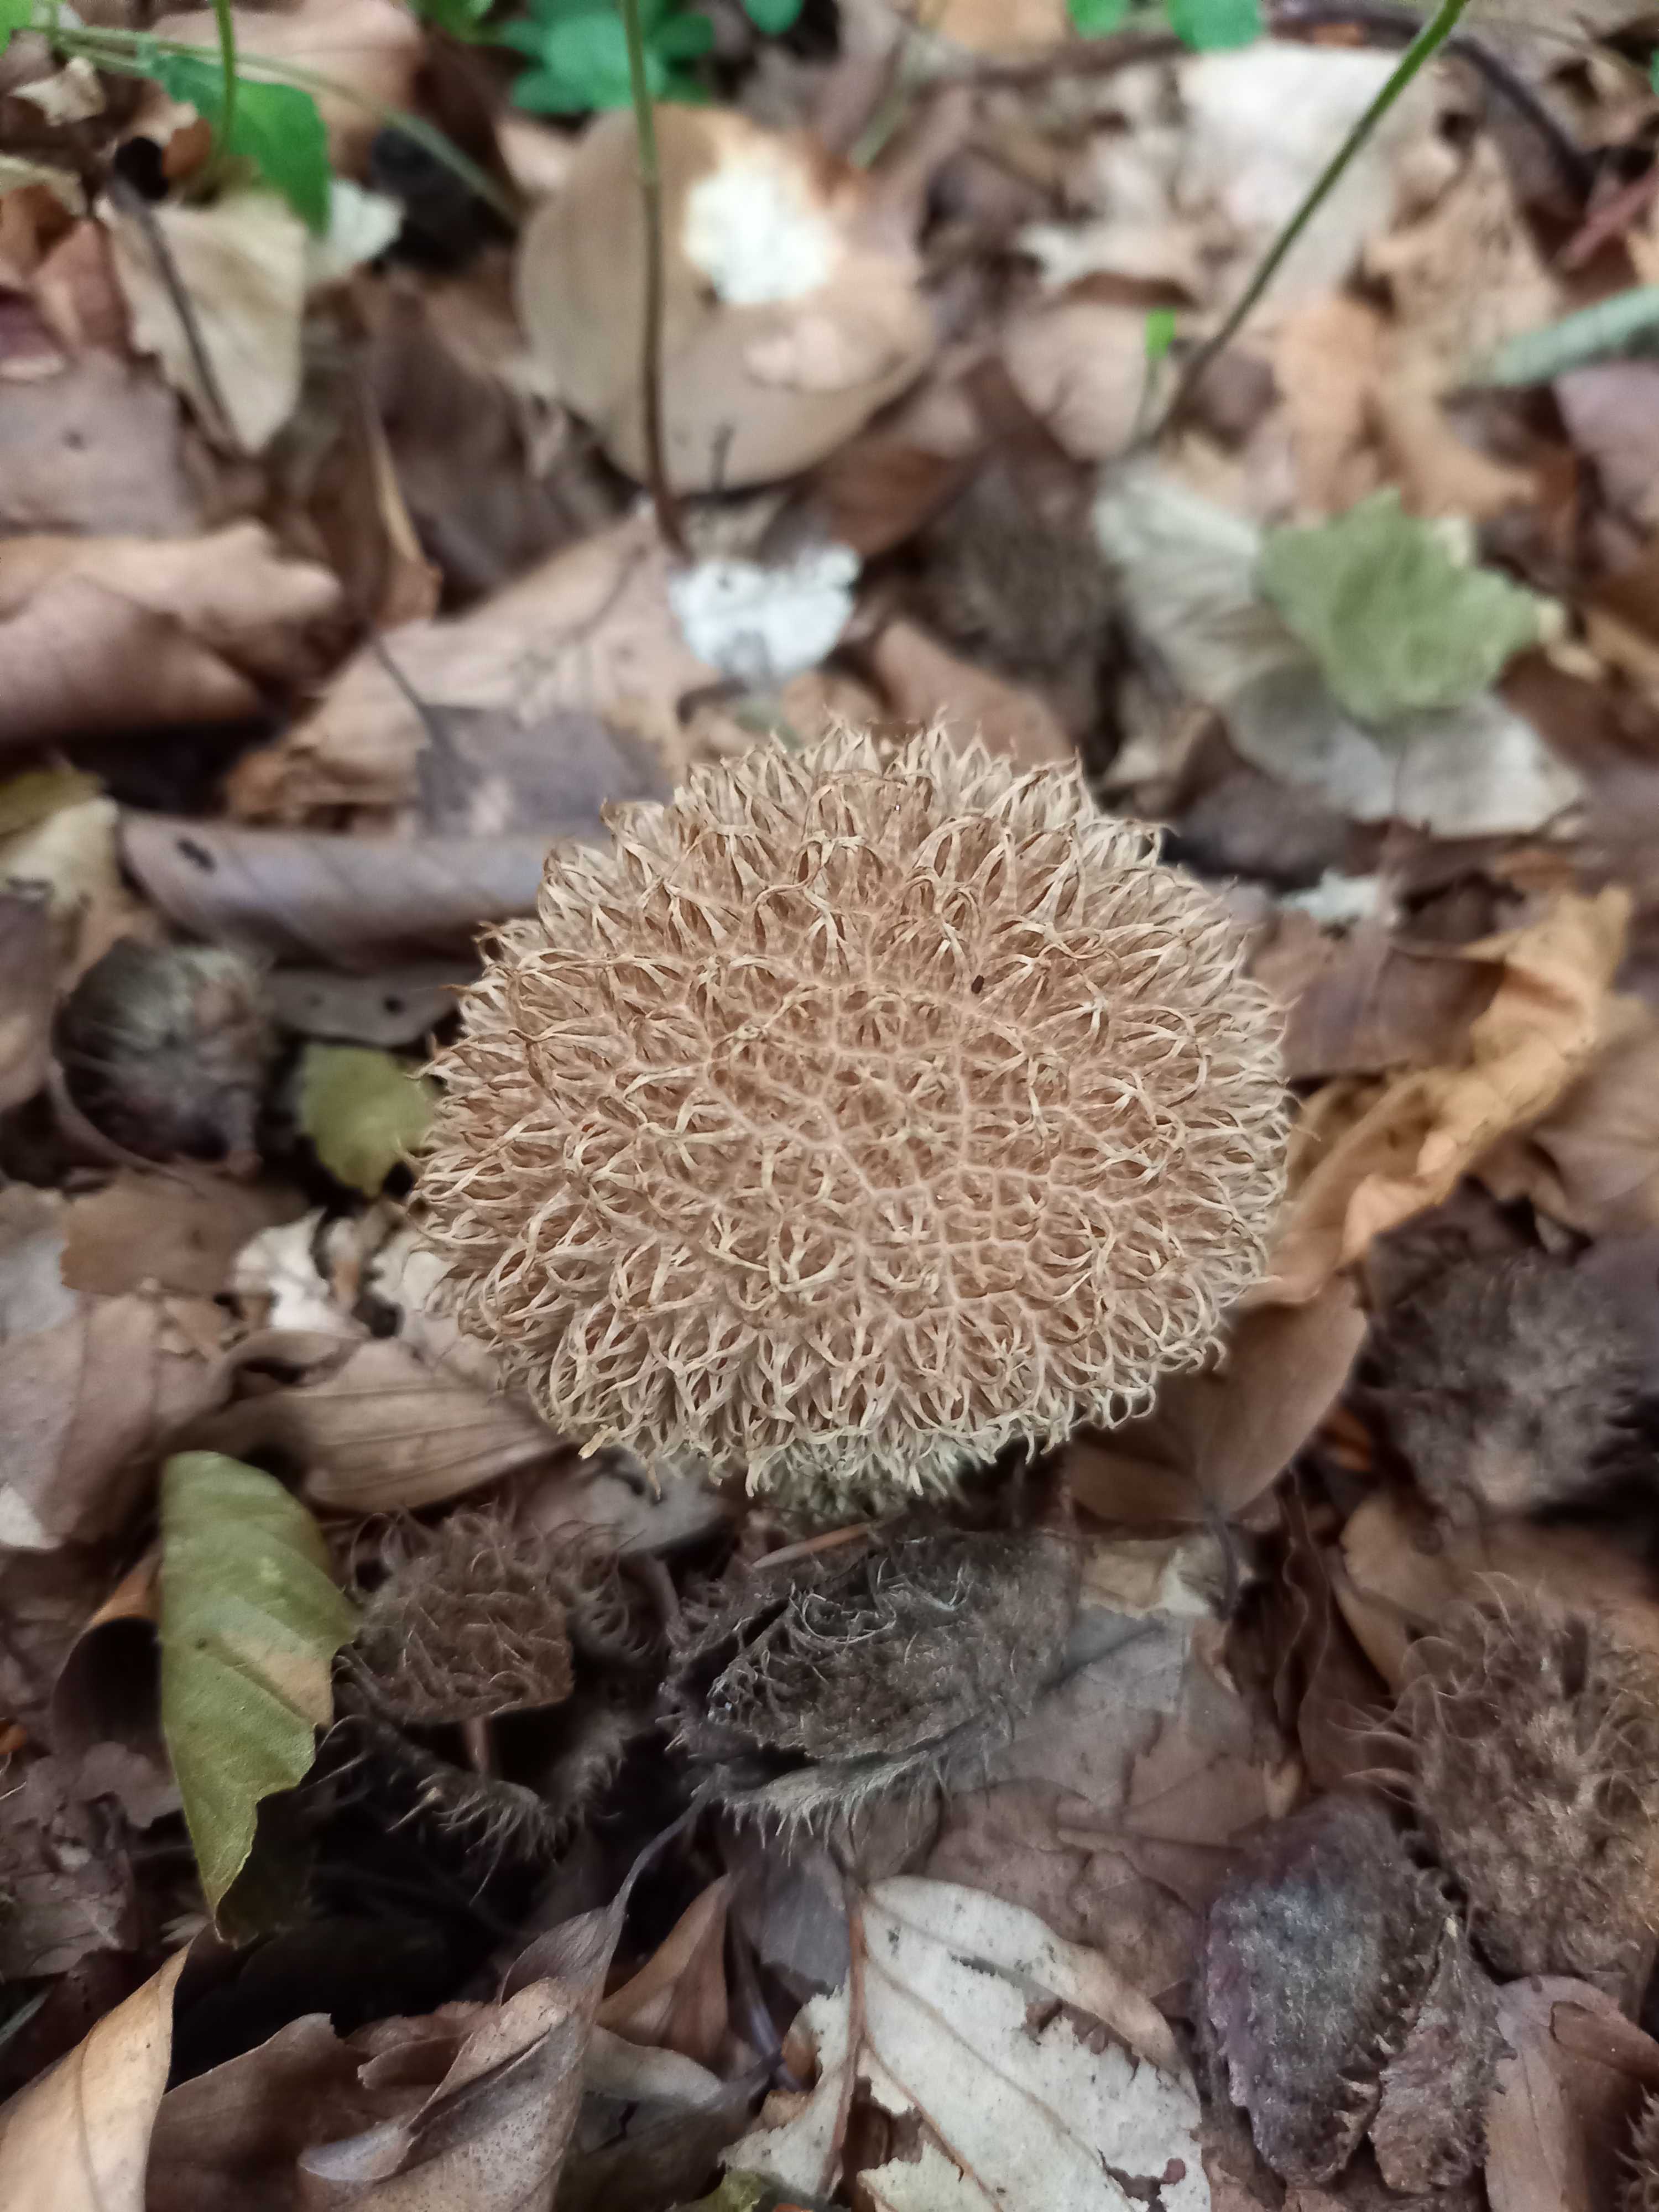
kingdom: Fungi
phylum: Basidiomycota
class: Agaricomycetes
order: Agaricales
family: Lycoperdaceae
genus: Lycoperdon
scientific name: Lycoperdon echinatum
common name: pindsvine-støvbold
